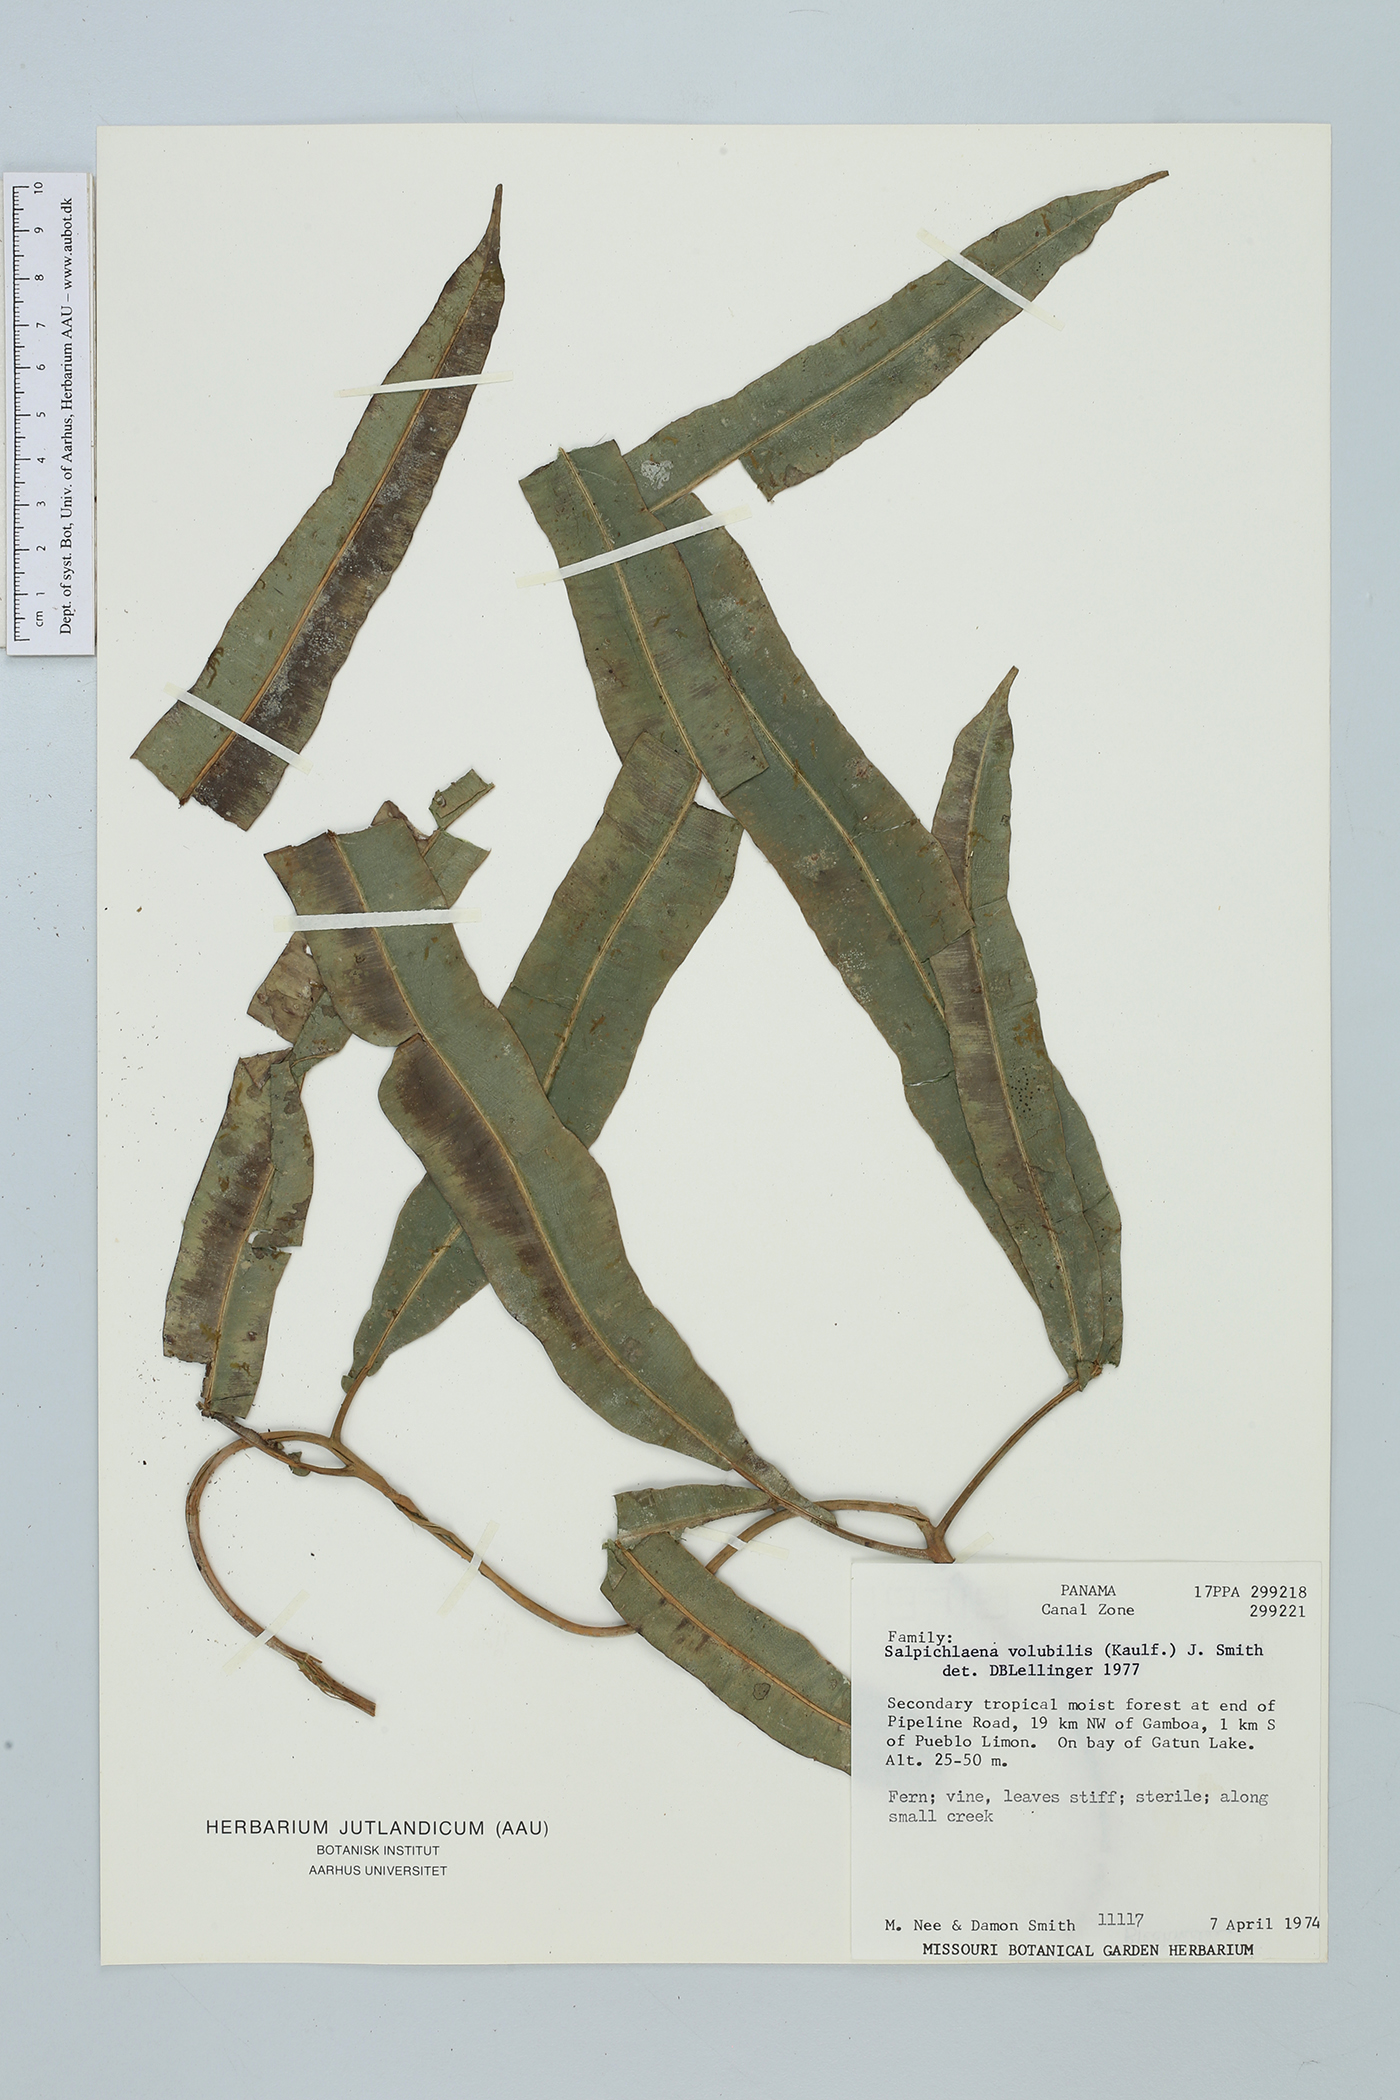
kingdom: Plantae
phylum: Tracheophyta
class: Polypodiopsida
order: Polypodiales
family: Blechnaceae
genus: Salpichlaena
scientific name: Salpichlaena volubilis
